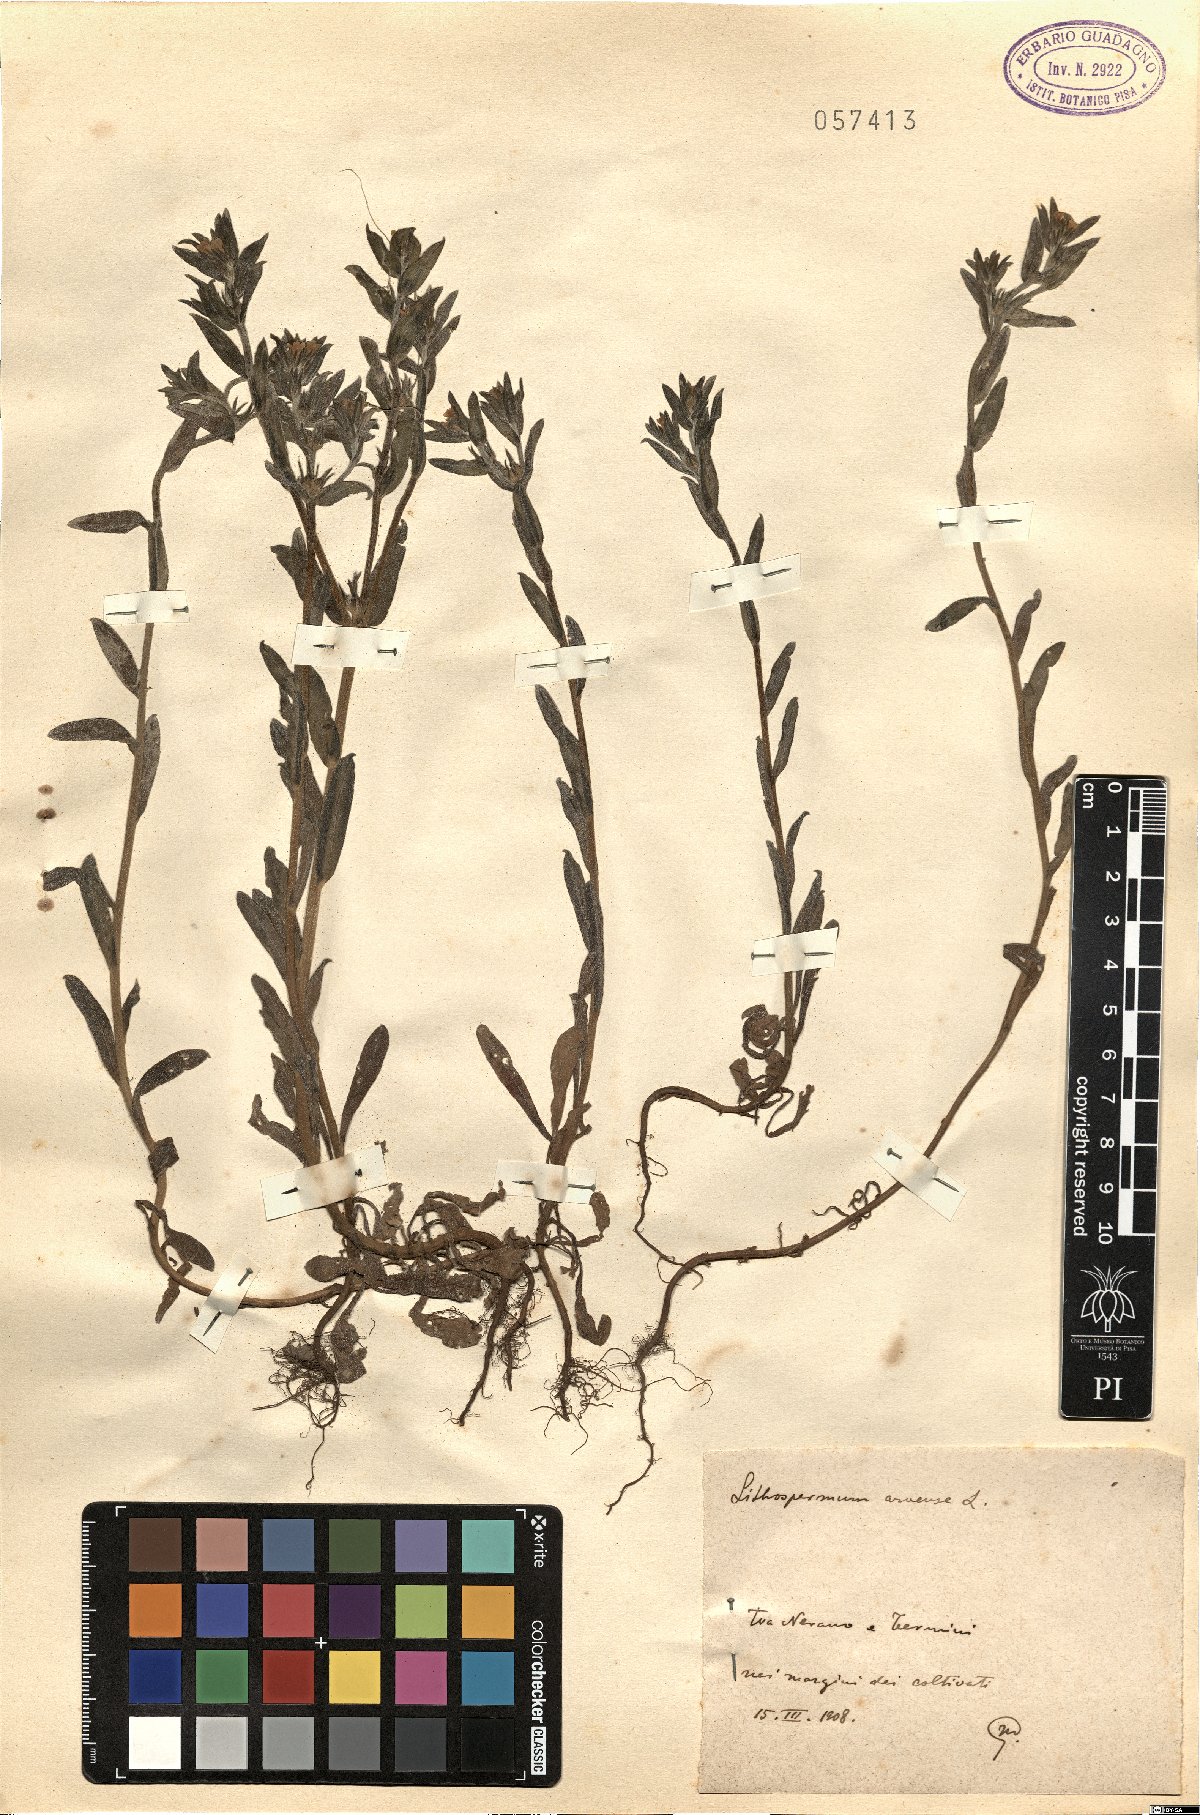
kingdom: Plantae
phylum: Tracheophyta
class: Magnoliopsida
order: Boraginales
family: Boraginaceae
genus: Buglossoides
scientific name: Buglossoides arvensis
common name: Corn gromwell
